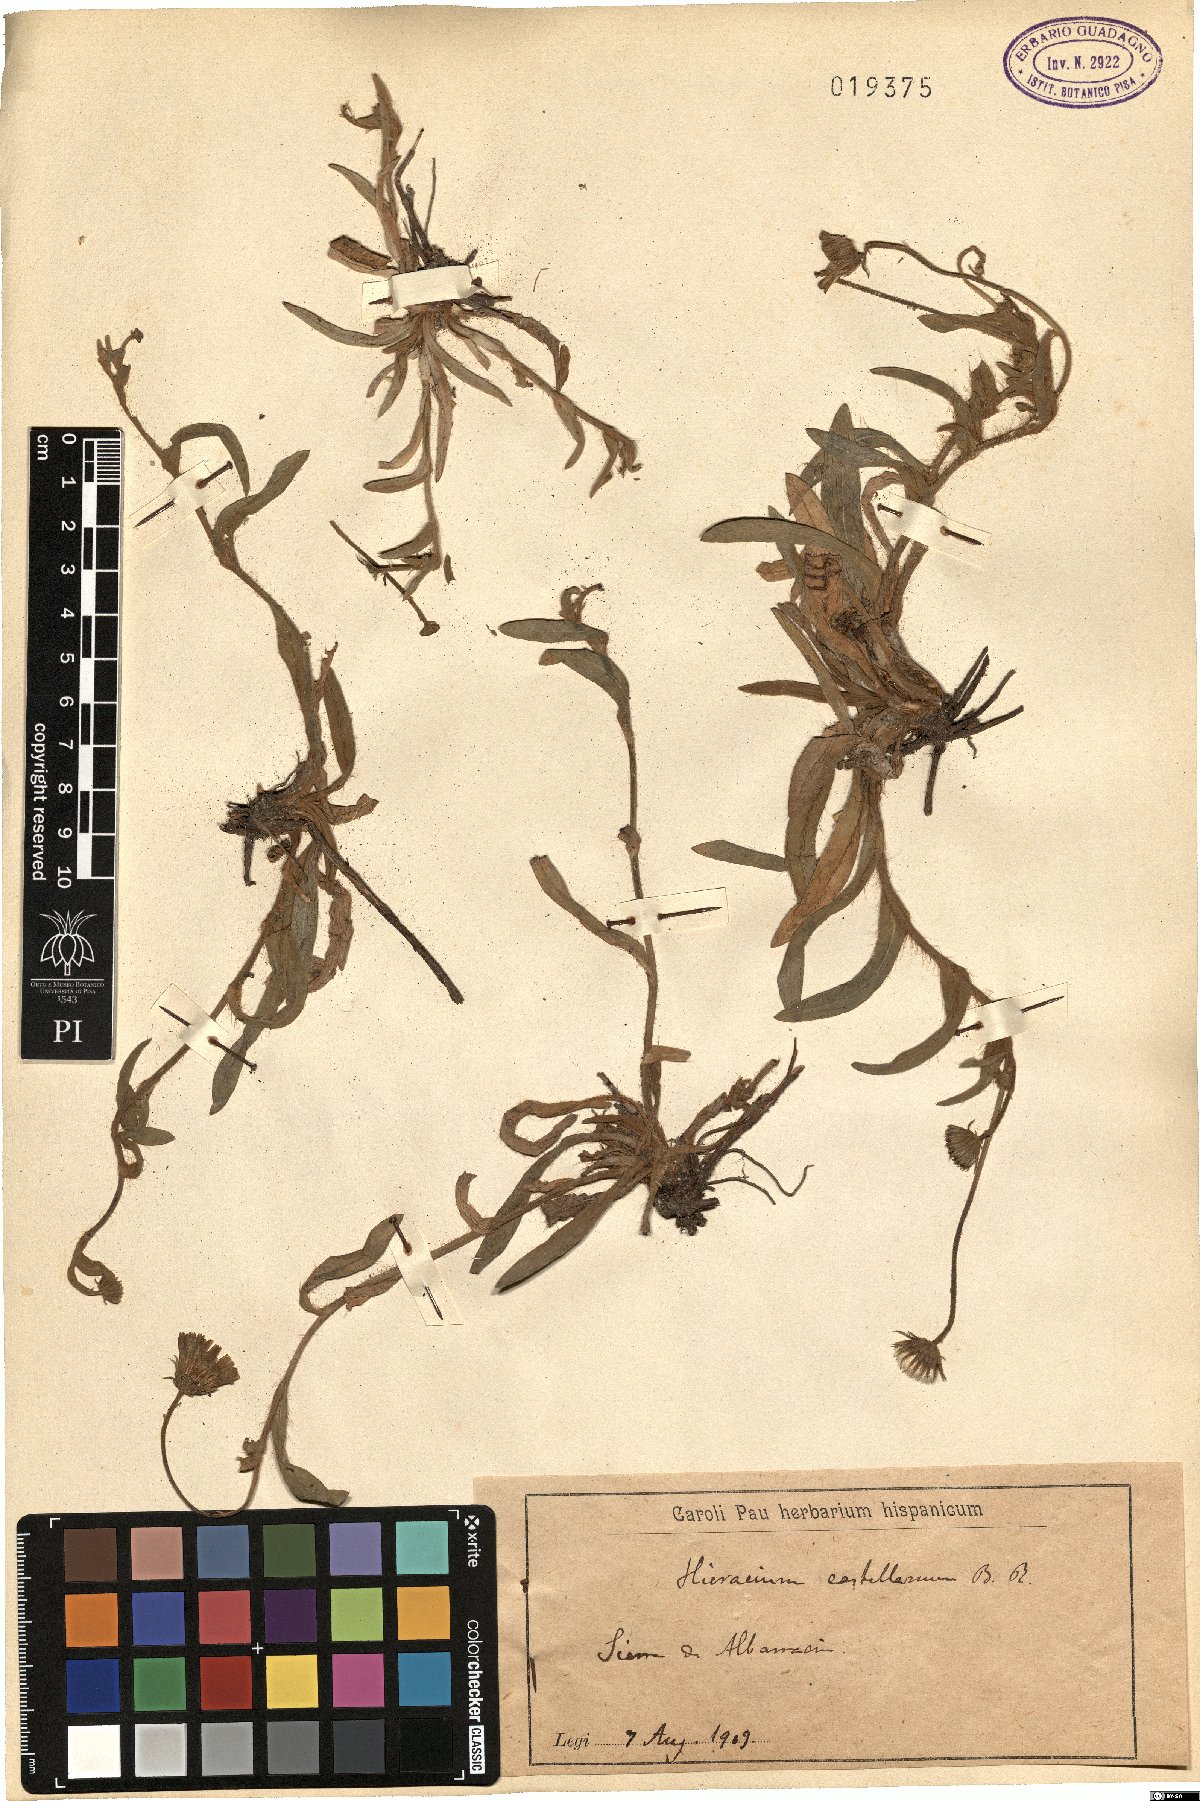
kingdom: Plantae
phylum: Tracheophyta
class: Magnoliopsida
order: Asterales
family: Asteraceae
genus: Pilosella
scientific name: Pilosella castellana
